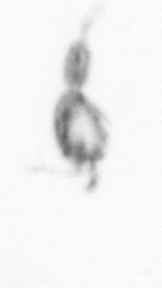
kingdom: Animalia
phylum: Arthropoda
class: Copepoda
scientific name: Copepoda
